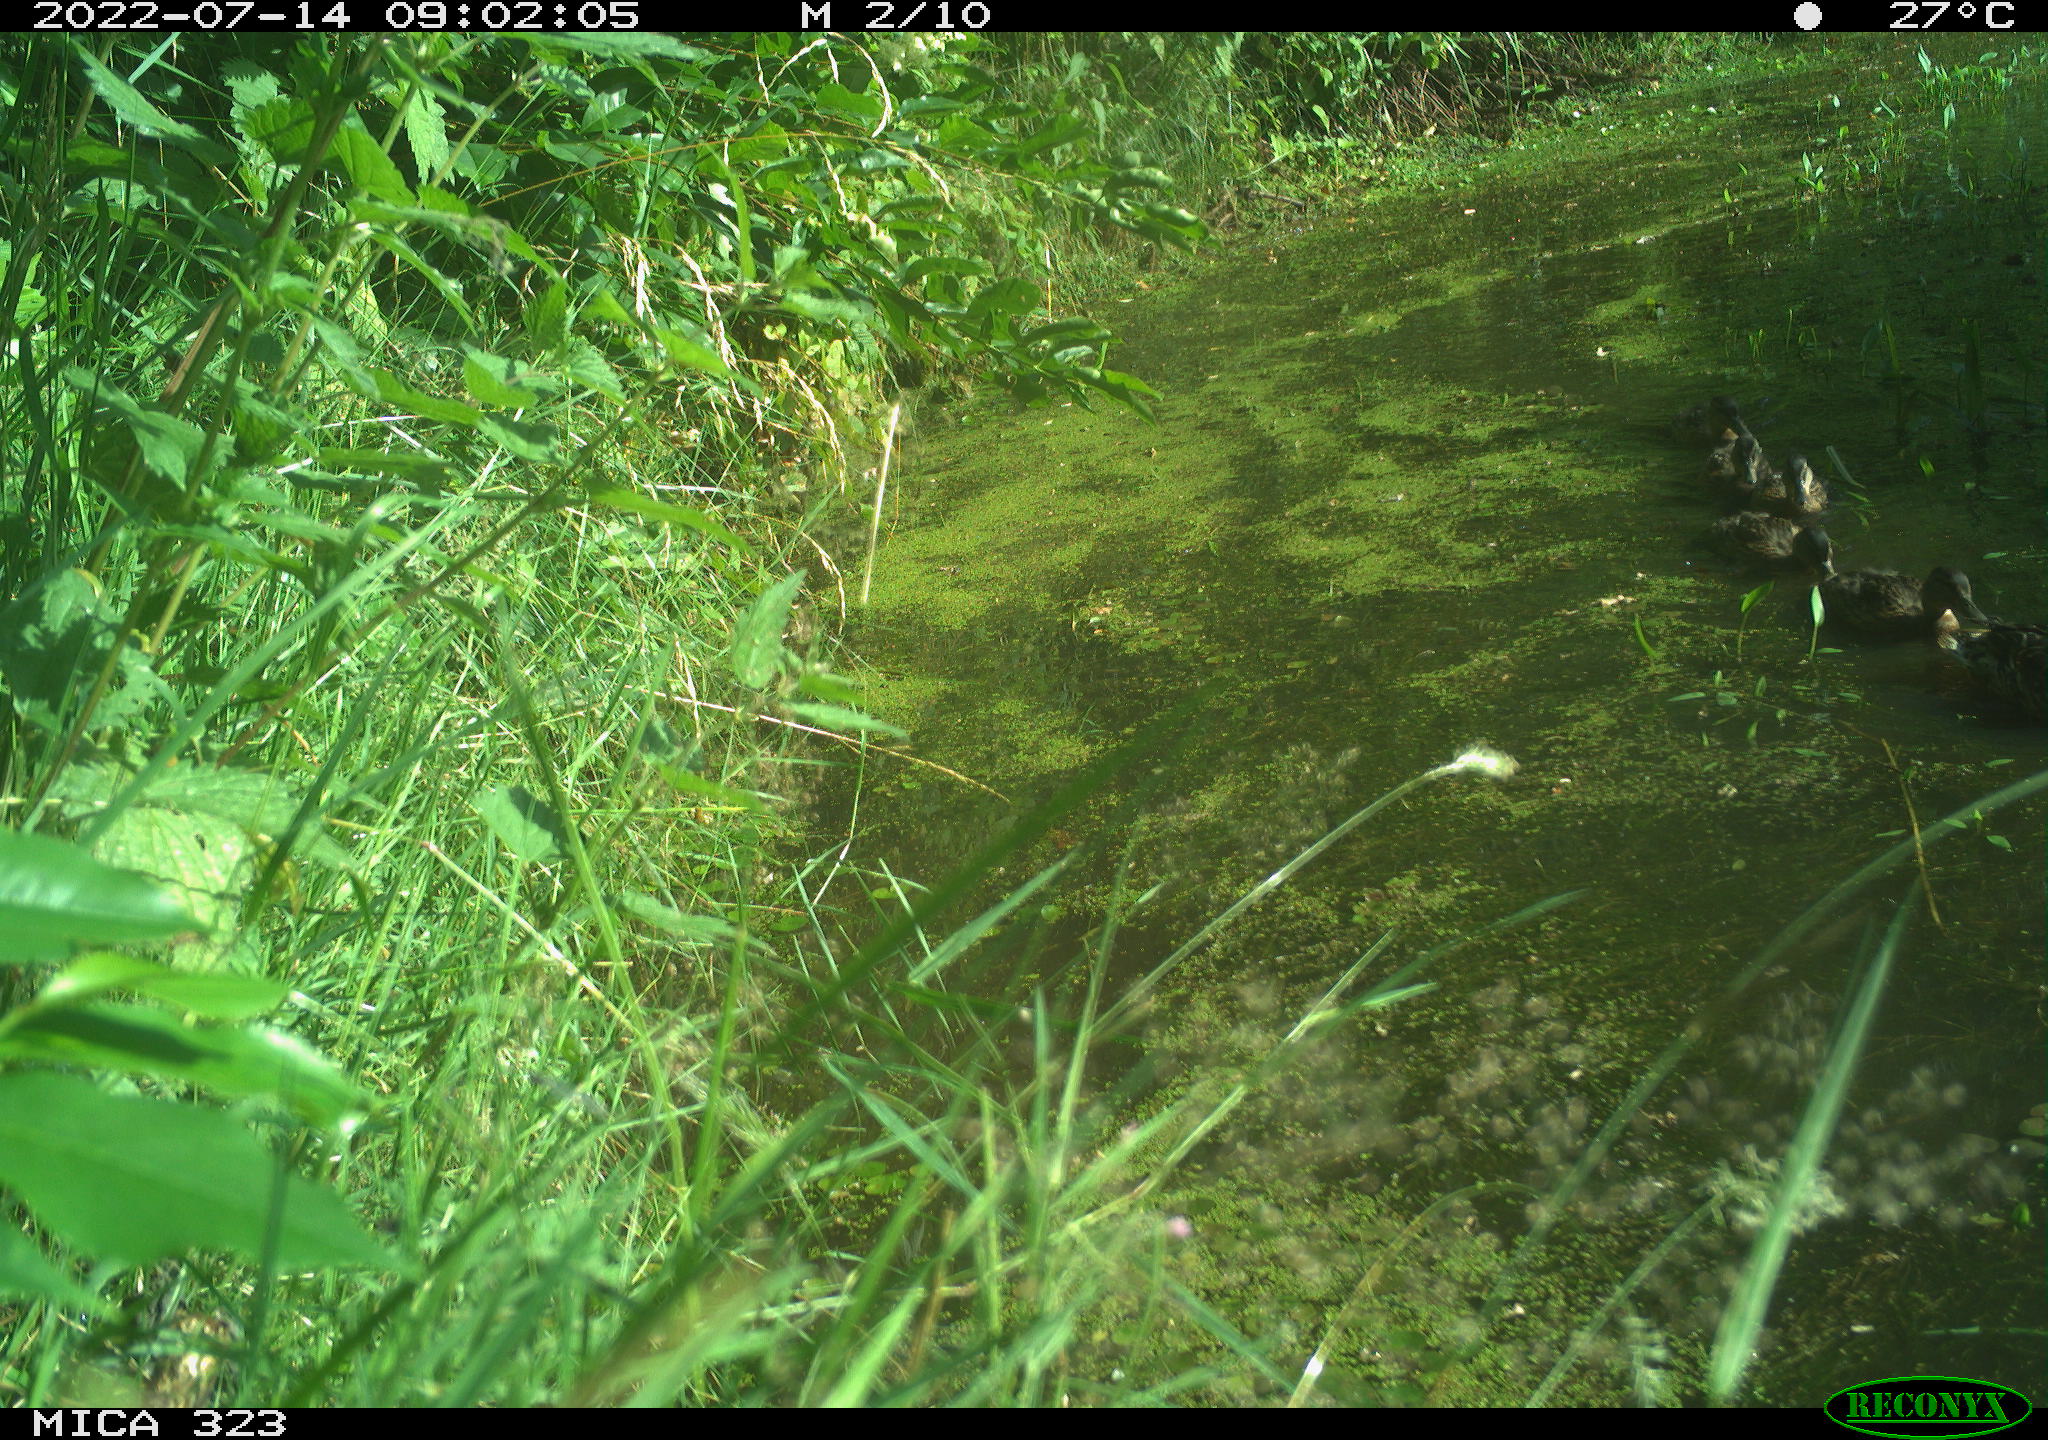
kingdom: Animalia
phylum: Chordata
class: Aves
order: Anseriformes
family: Anatidae
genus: Anas
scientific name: Anas platyrhynchos
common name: Mallard
